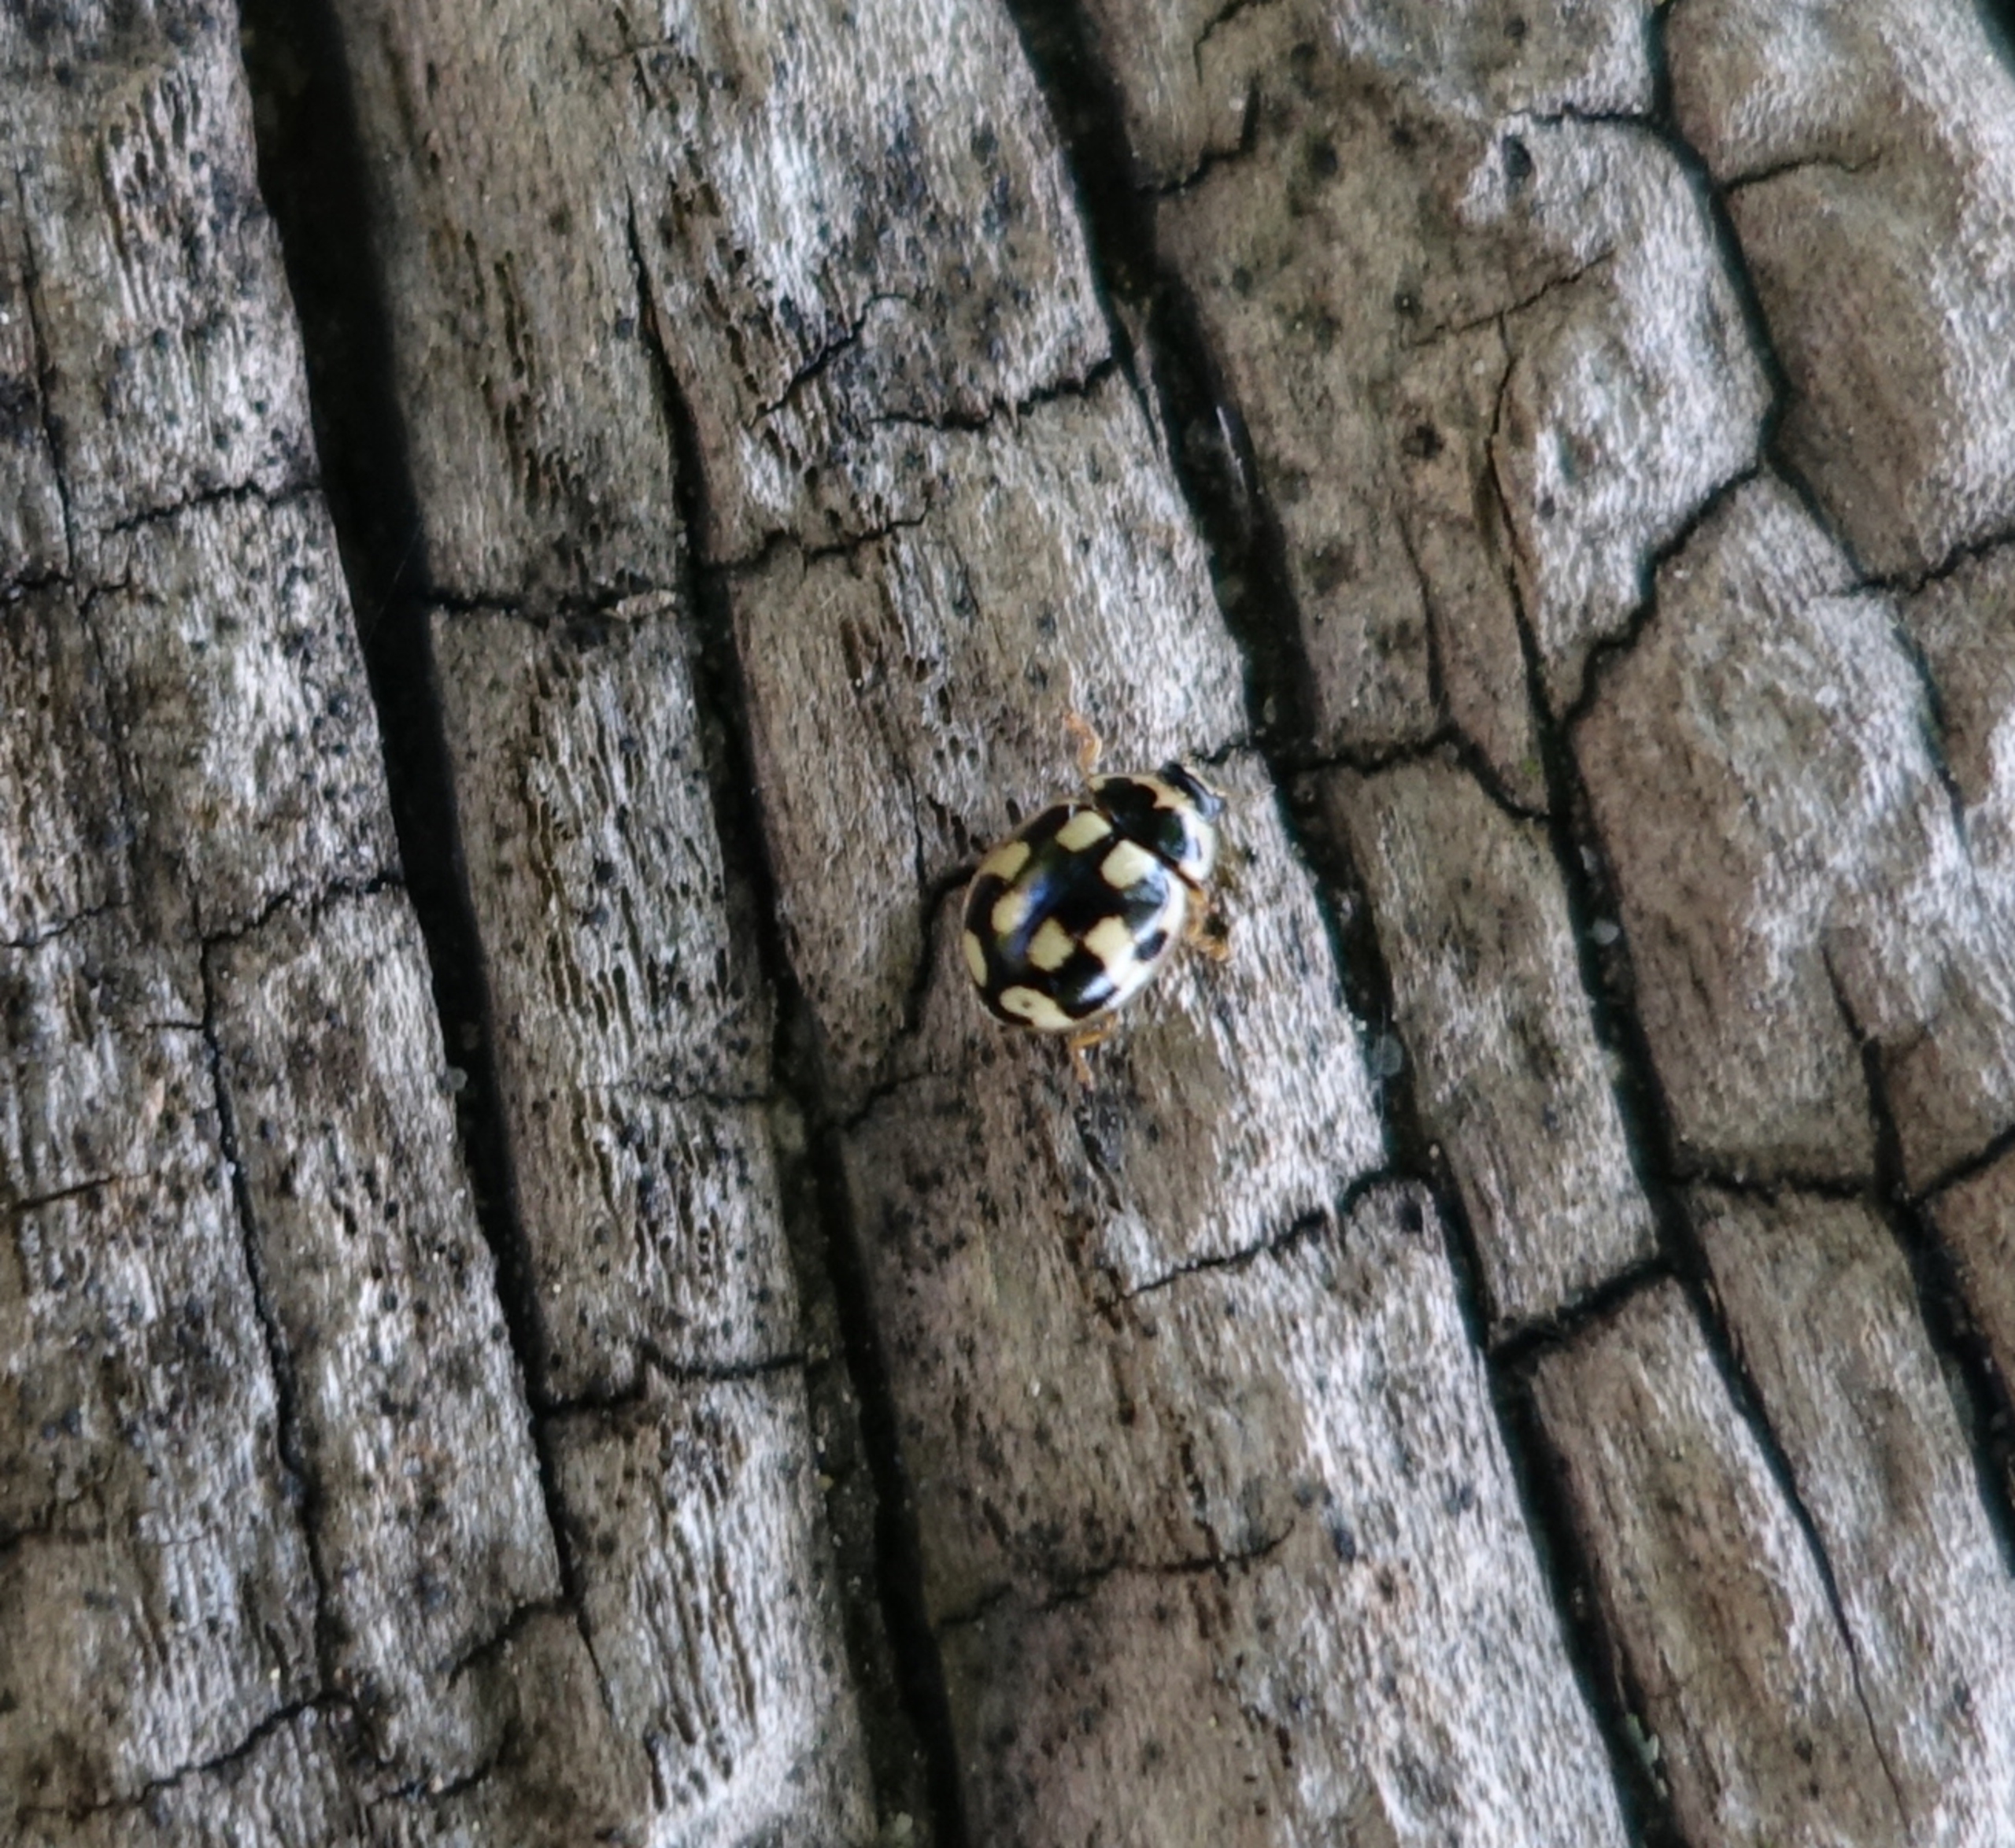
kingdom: Animalia
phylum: Arthropoda
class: Insecta
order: Coleoptera
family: Coccinellidae
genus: Propylaea
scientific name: Propylaea quatuordecimpunctata
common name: Skakbræt
